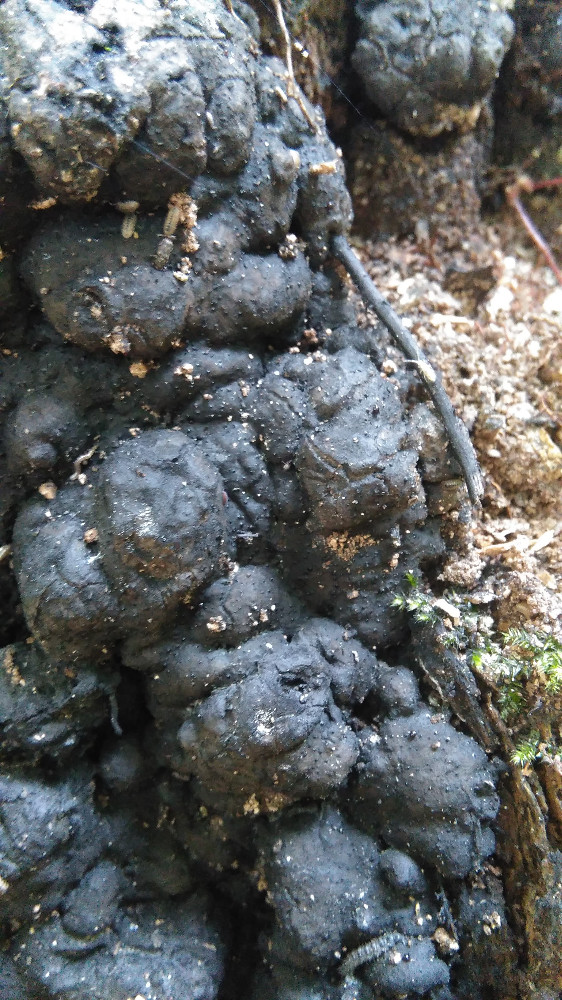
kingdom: Fungi
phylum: Ascomycota
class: Sordariomycetes
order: Xylariales
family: Xylariaceae
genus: Kretzschmaria
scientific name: Kretzschmaria deusta
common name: stor kulsvamp
